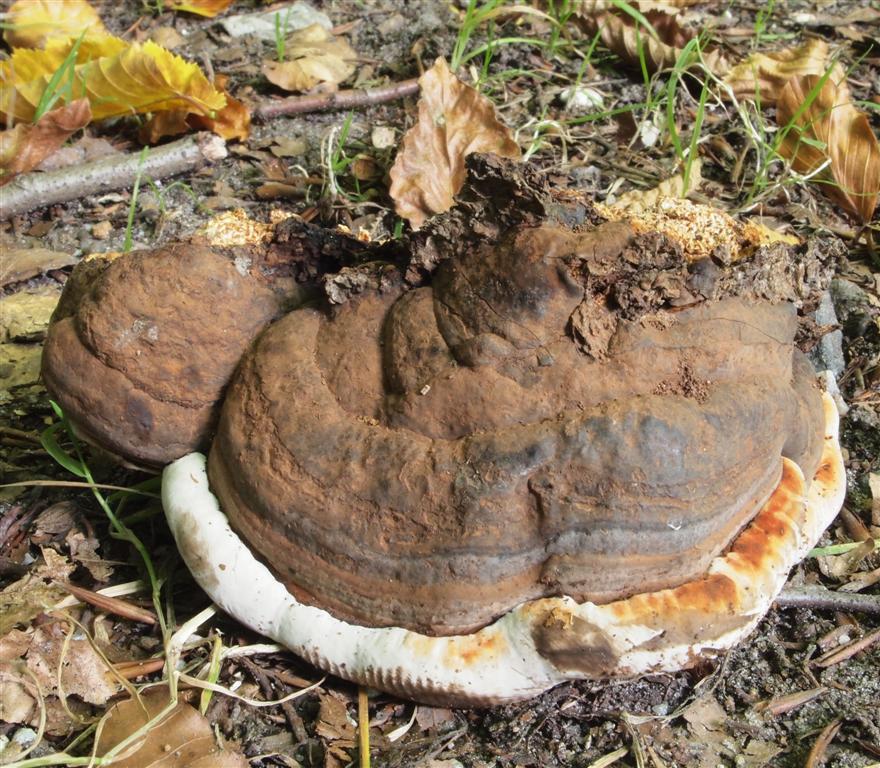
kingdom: Fungi
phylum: Basidiomycota
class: Agaricomycetes
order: Polyporales
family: Polyporaceae
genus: Ganoderma
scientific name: Ganoderma applanatum
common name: flad lakporesvamp
